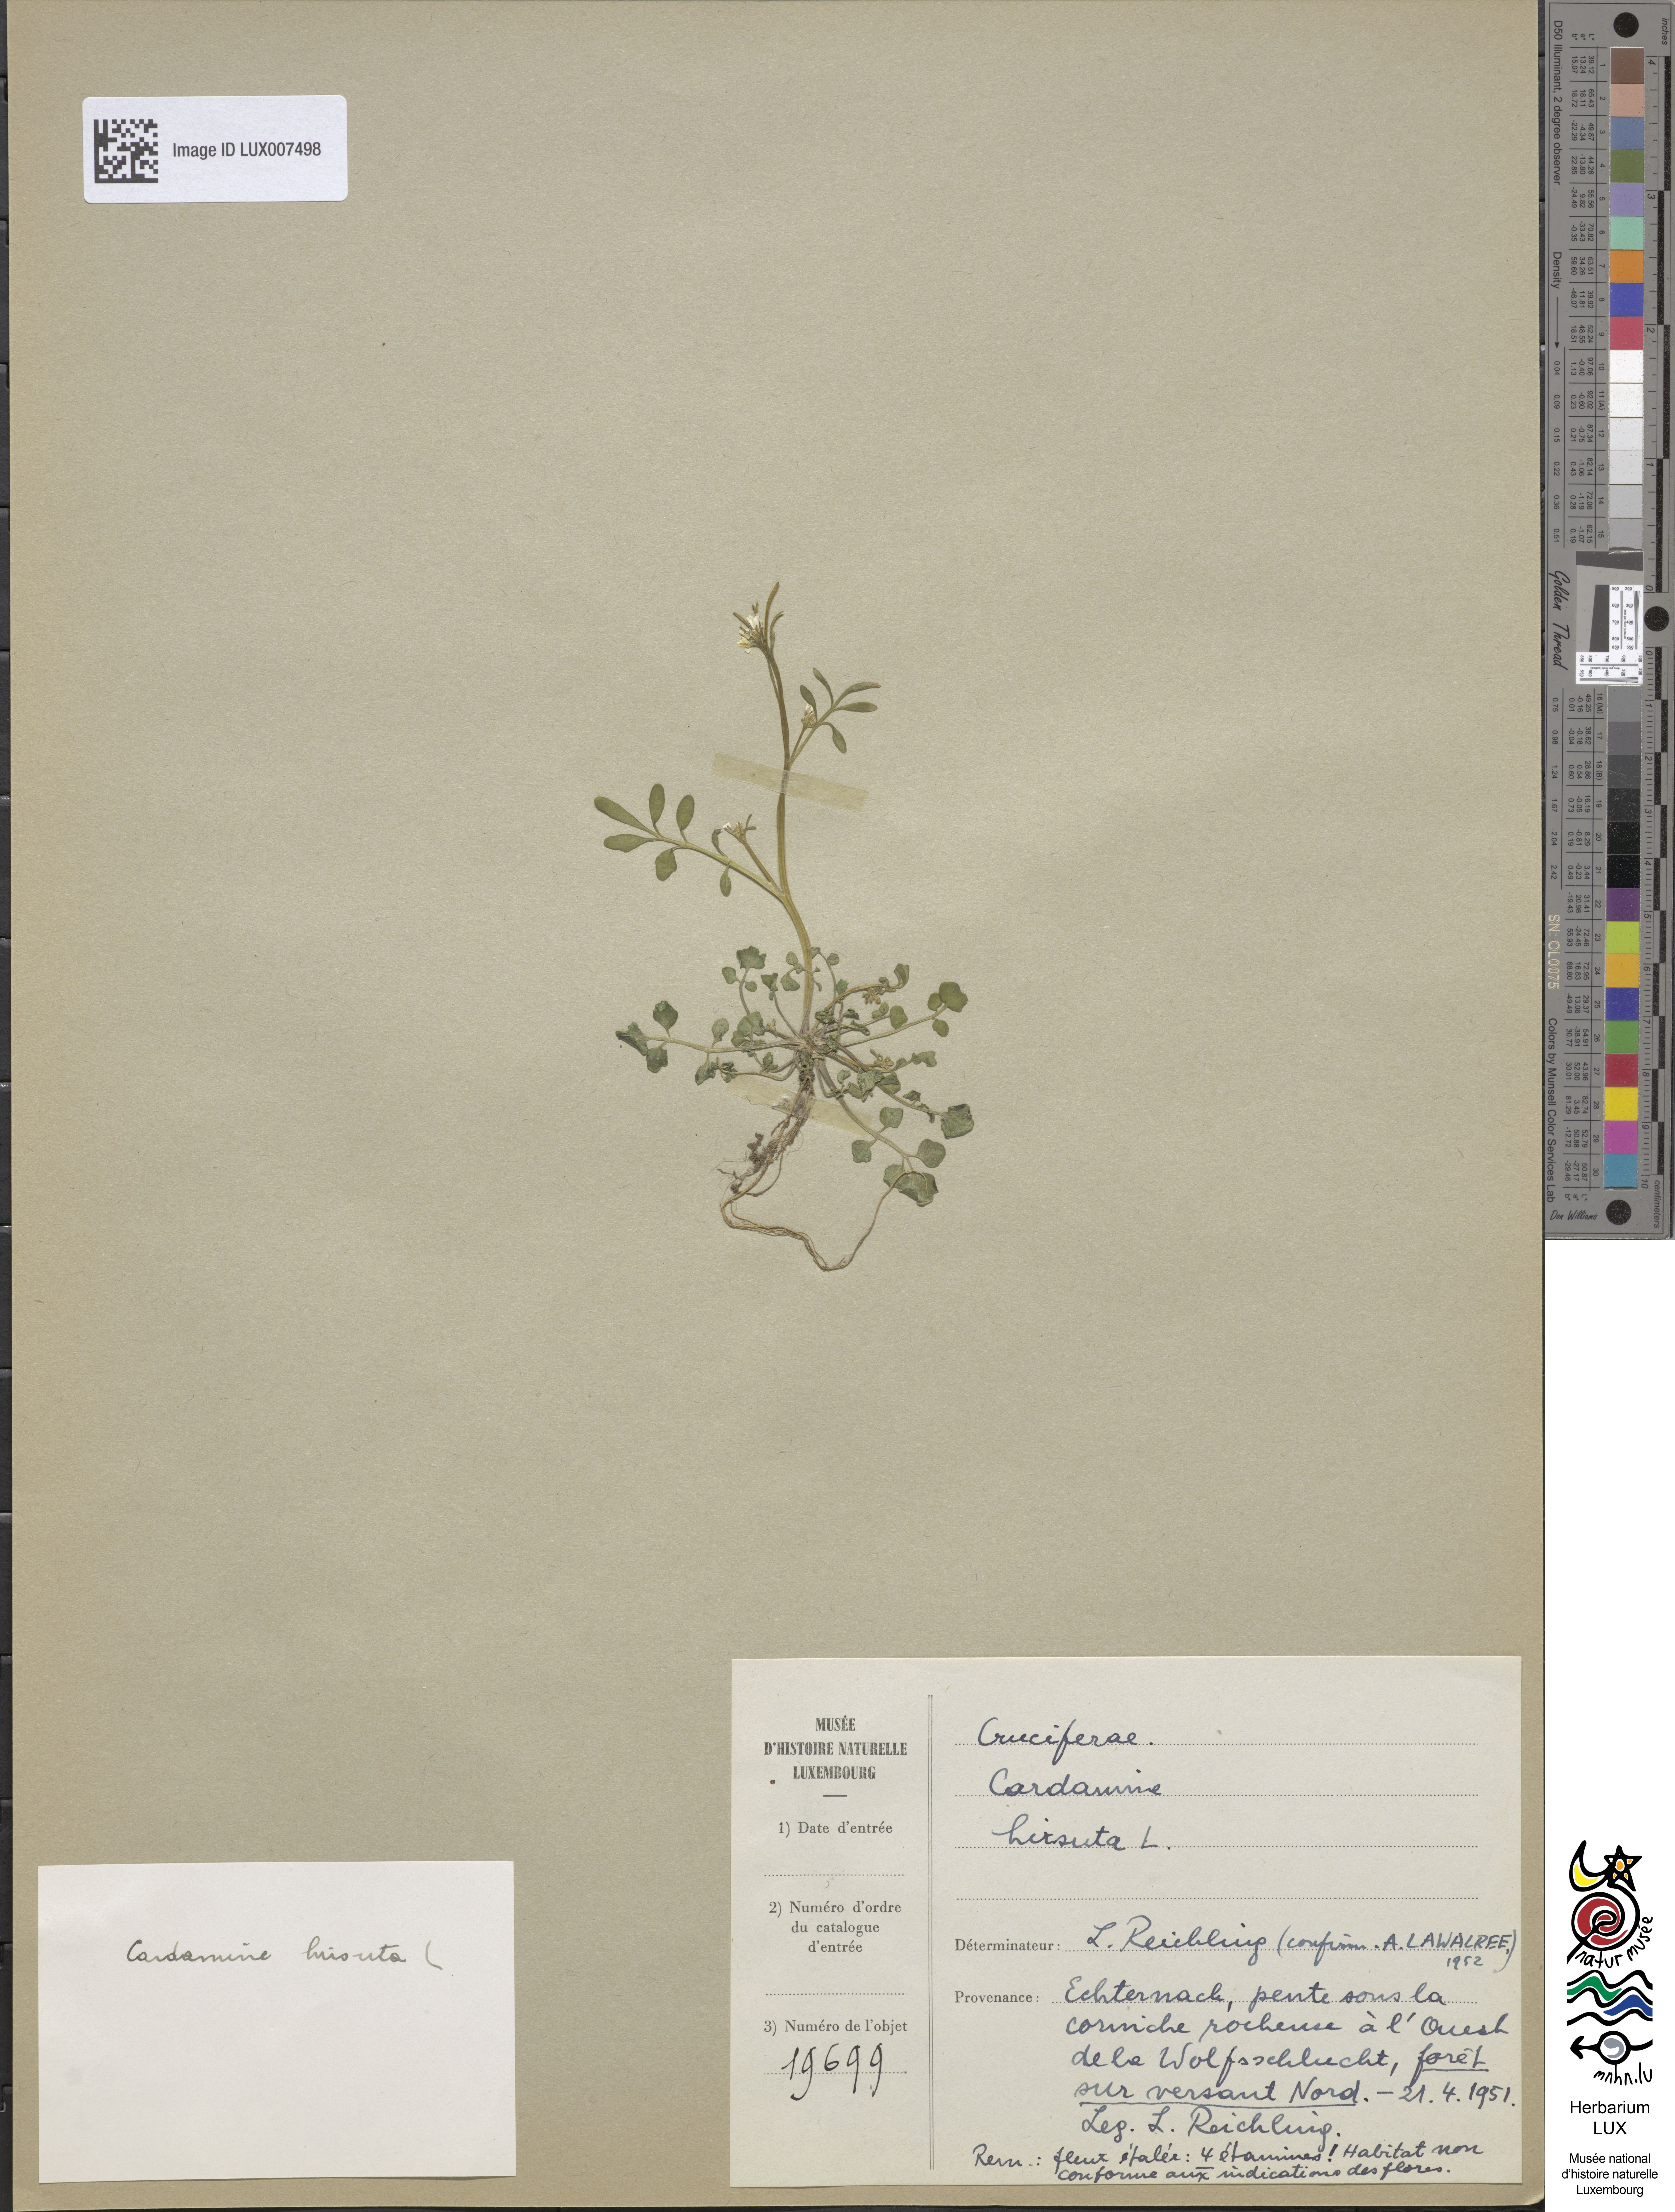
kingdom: Plantae
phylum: Tracheophyta
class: Magnoliopsida
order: Brassicales
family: Brassicaceae
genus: Cardamine
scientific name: Cardamine hirsuta
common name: Hairy bittercress
